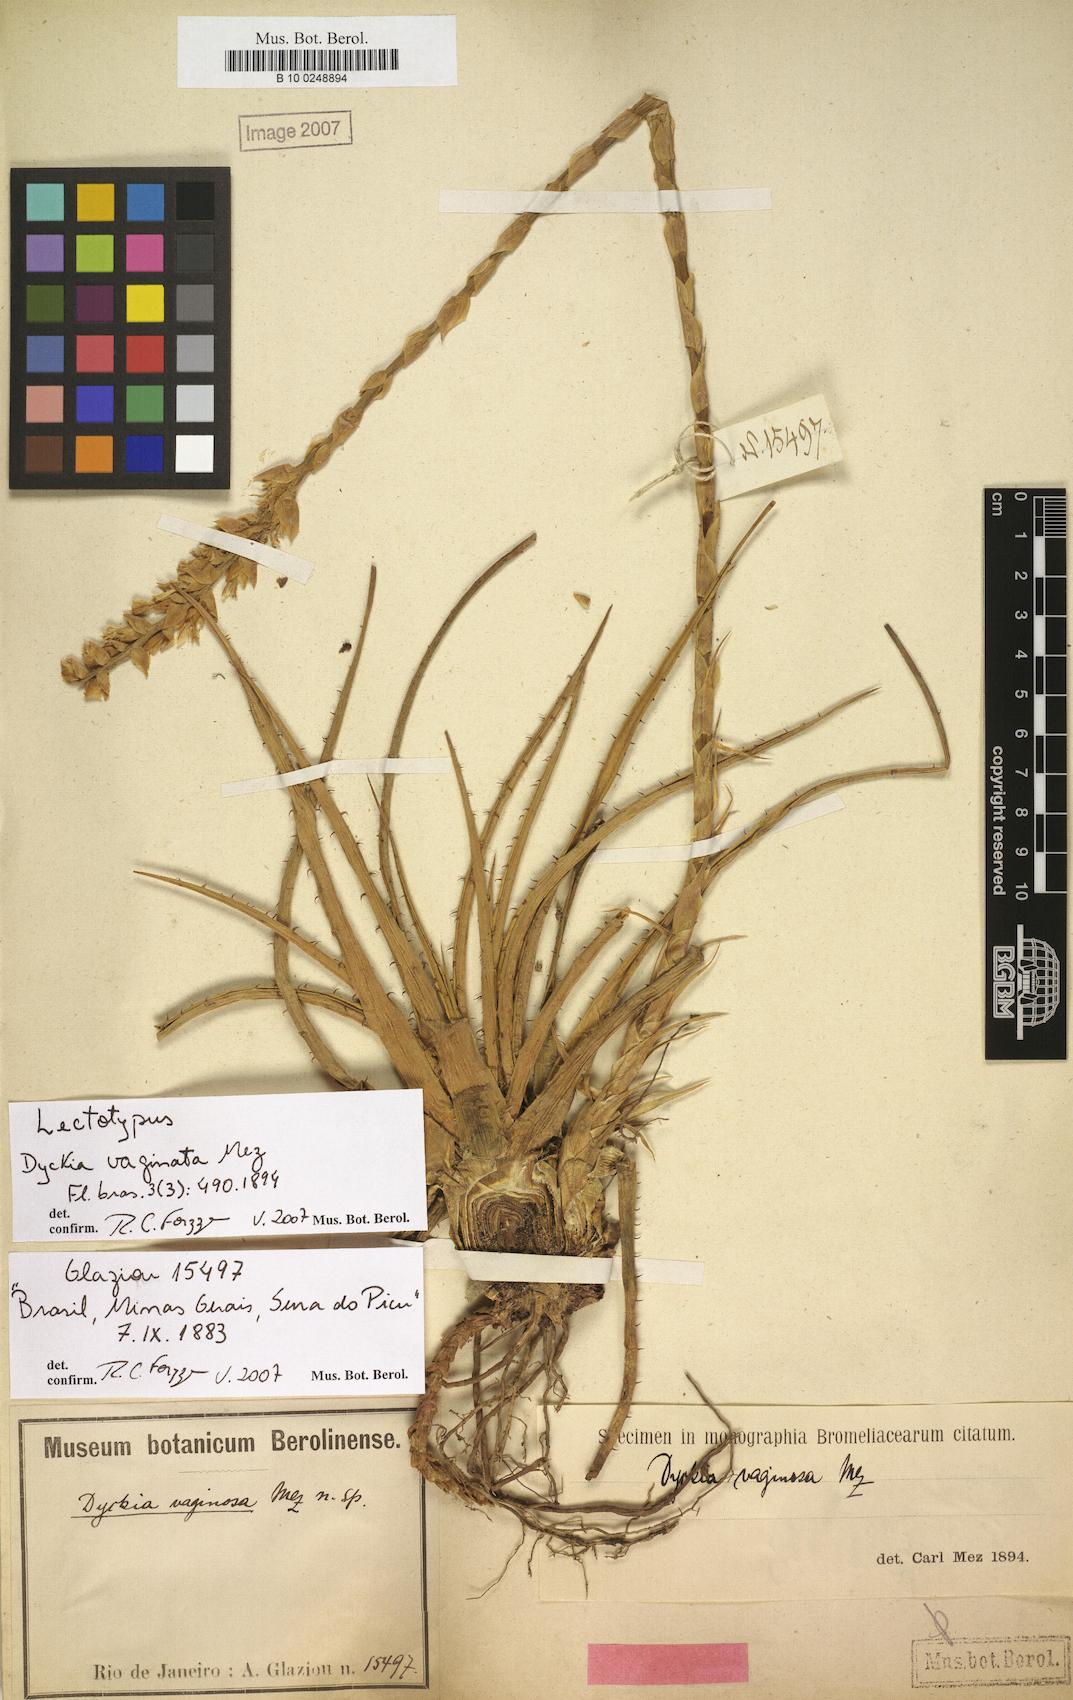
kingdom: Plantae
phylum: Tracheophyta
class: Liliopsida
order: Poales
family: Bromeliaceae
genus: Dyckia
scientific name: Dyckia remotiflora
